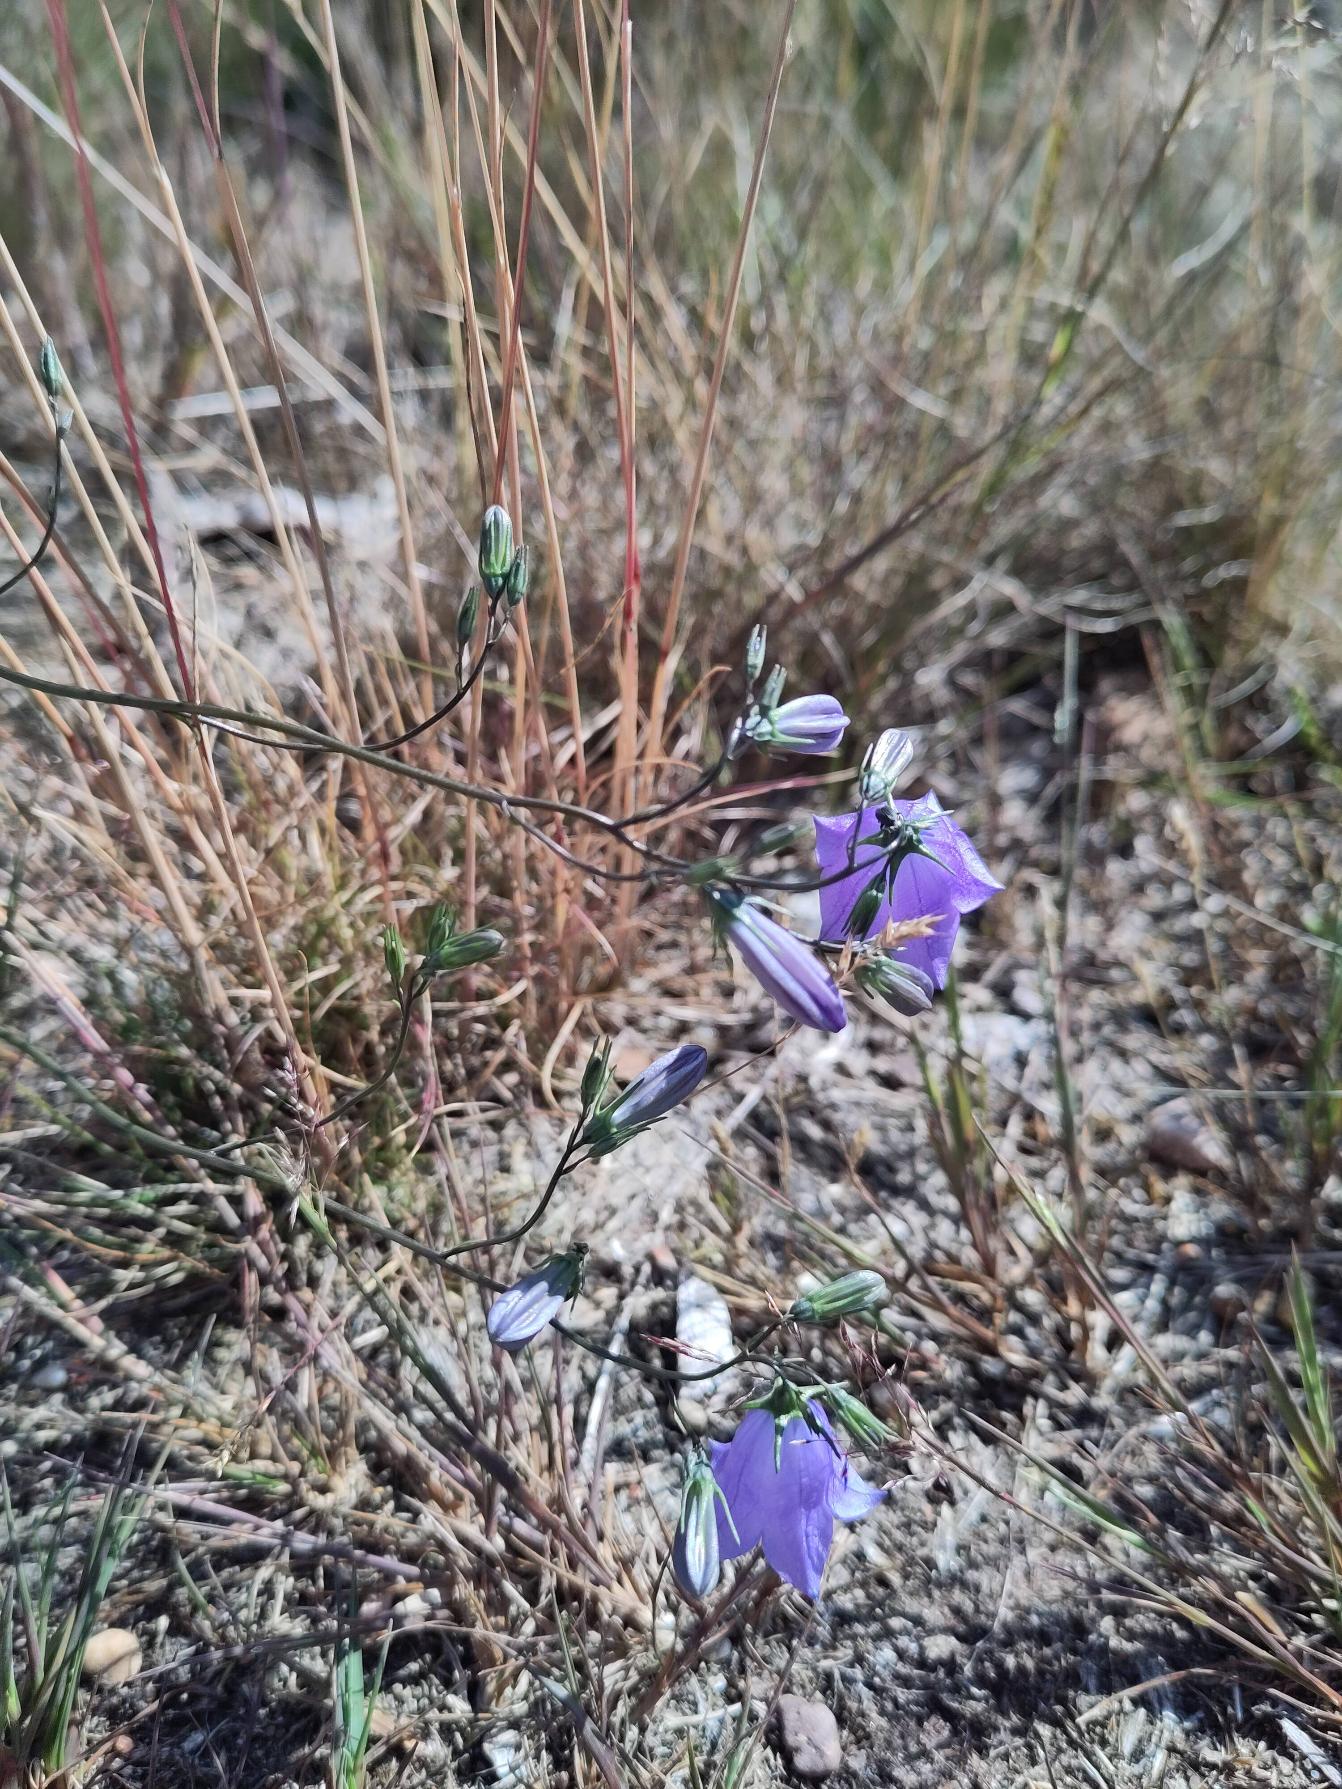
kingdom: Plantae
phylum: Tracheophyta
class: Magnoliopsida
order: Asterales
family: Campanulaceae
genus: Campanula
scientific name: Campanula rotundifolia
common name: Liden klokke
